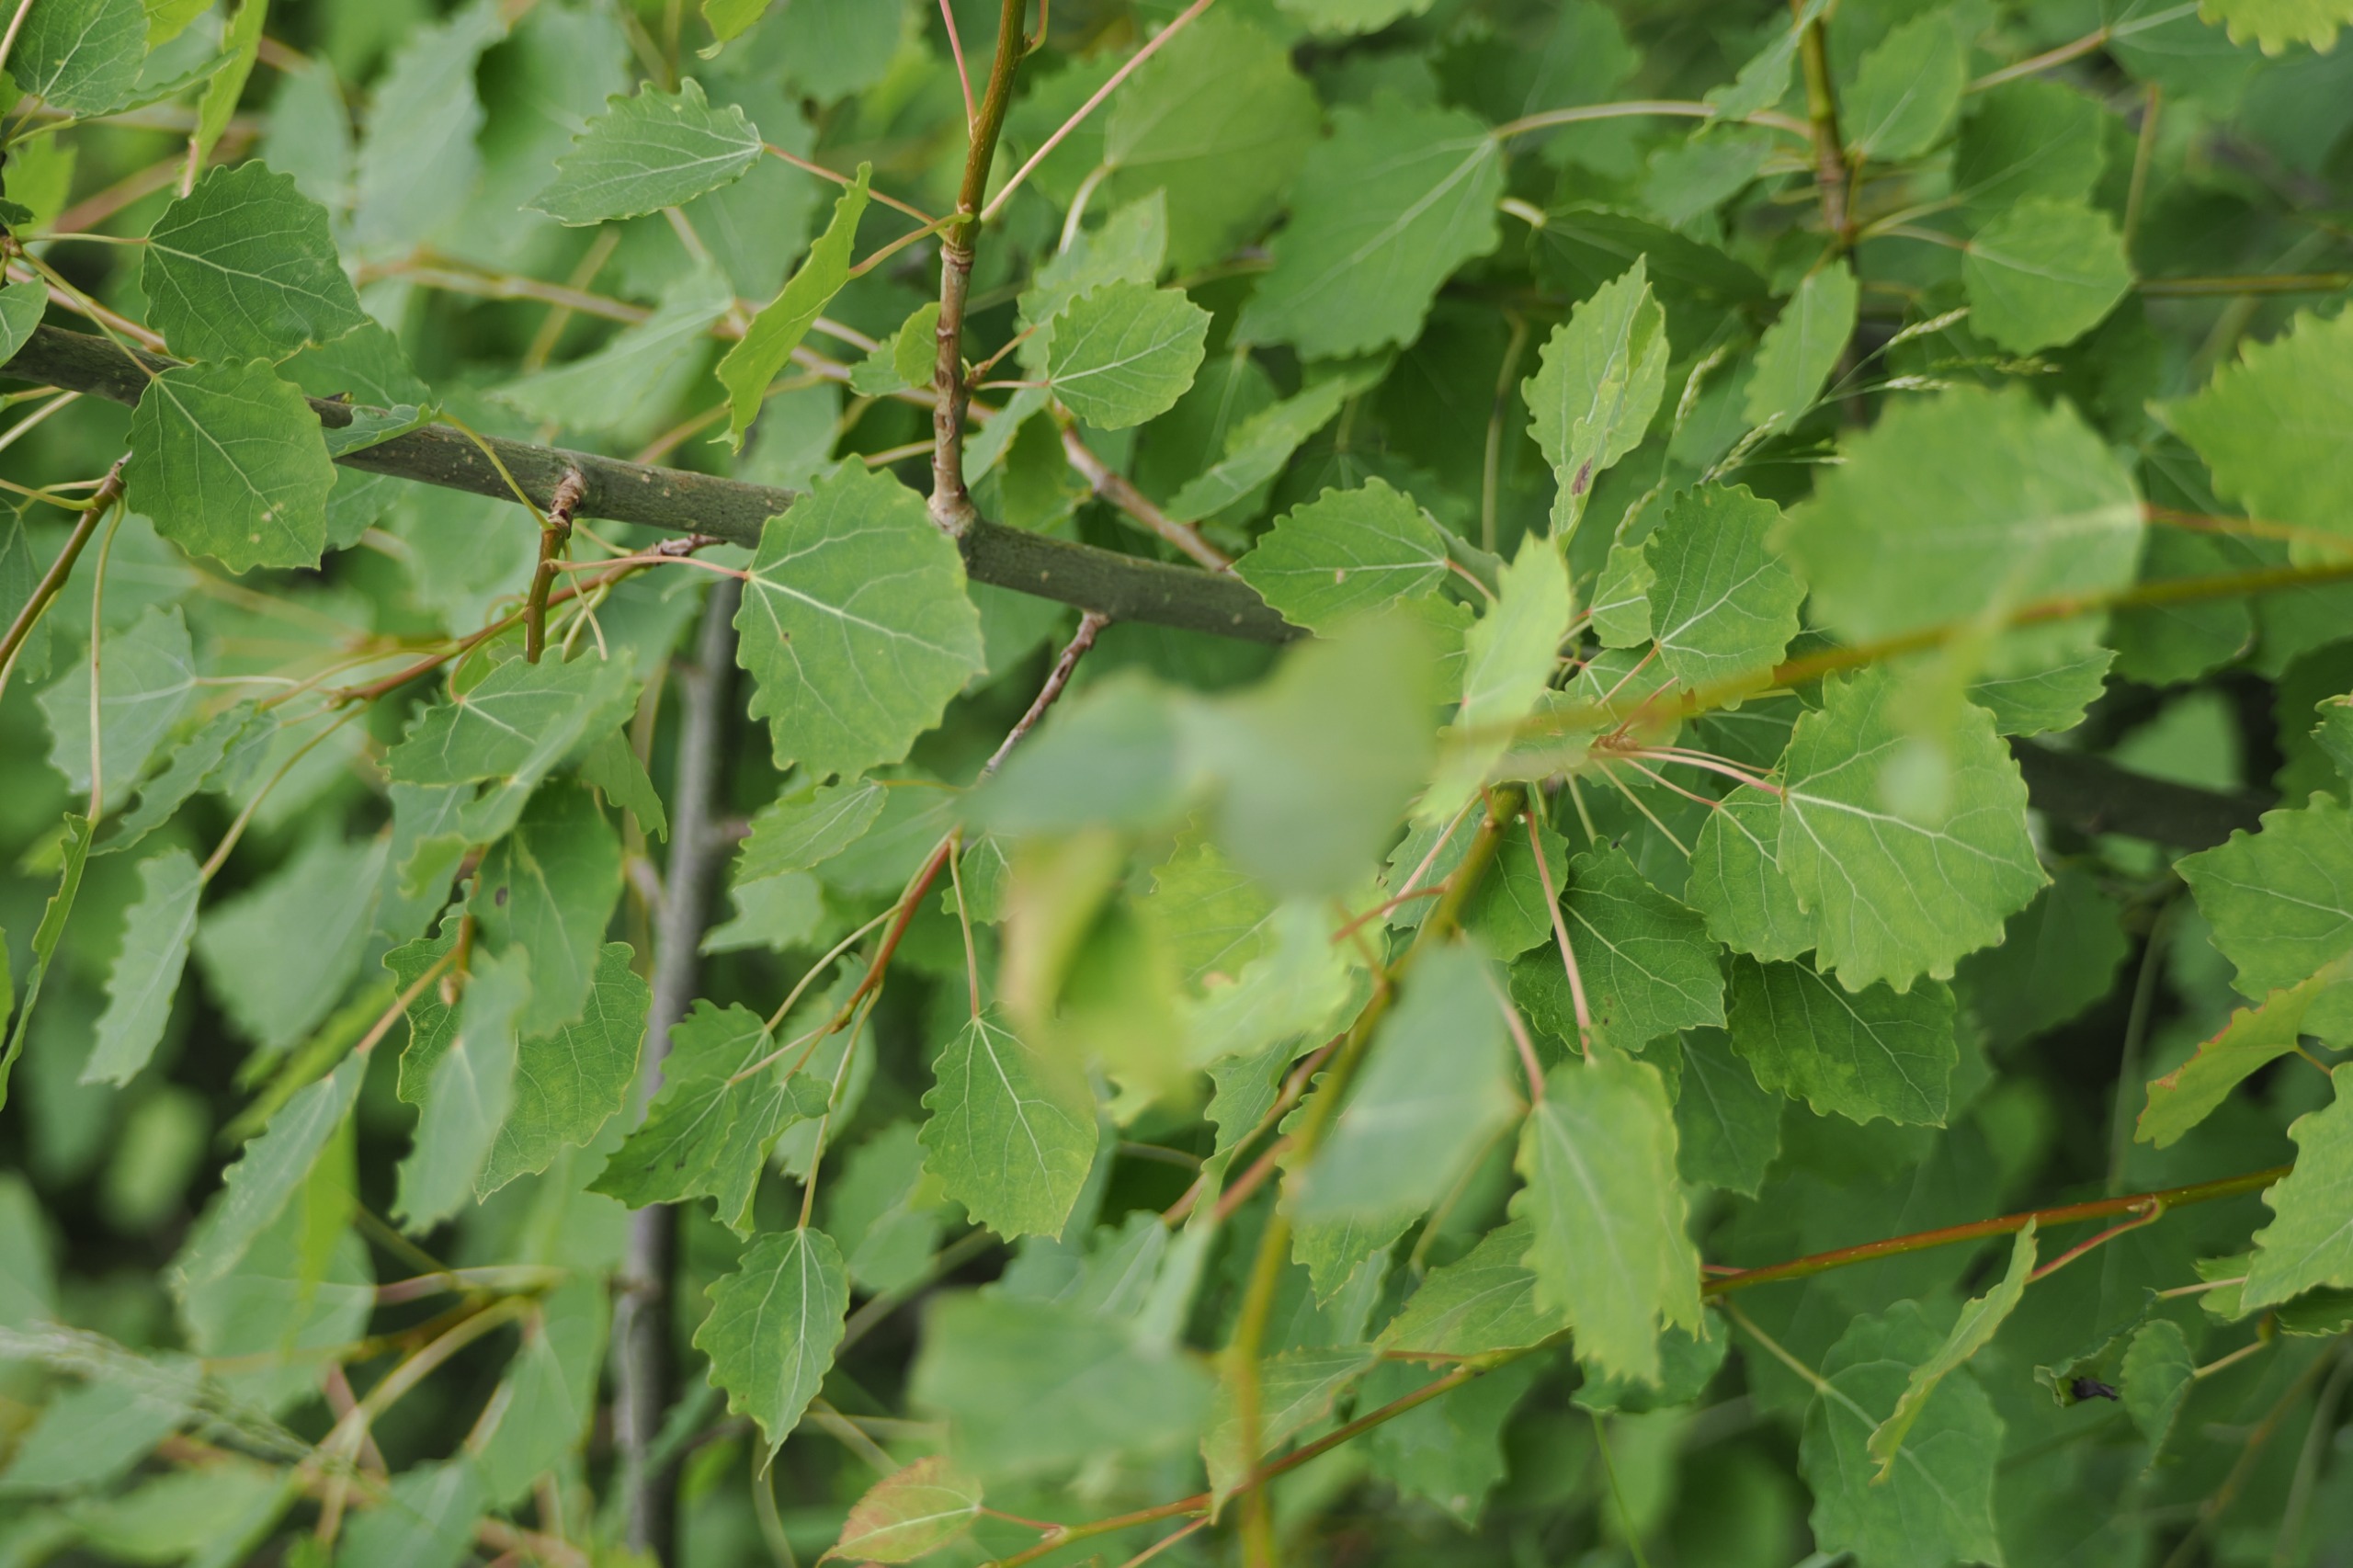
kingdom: Plantae
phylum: Tracheophyta
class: Magnoliopsida
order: Malpighiales
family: Salicaceae
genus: Populus
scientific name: Populus tremula
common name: Bævreasp
